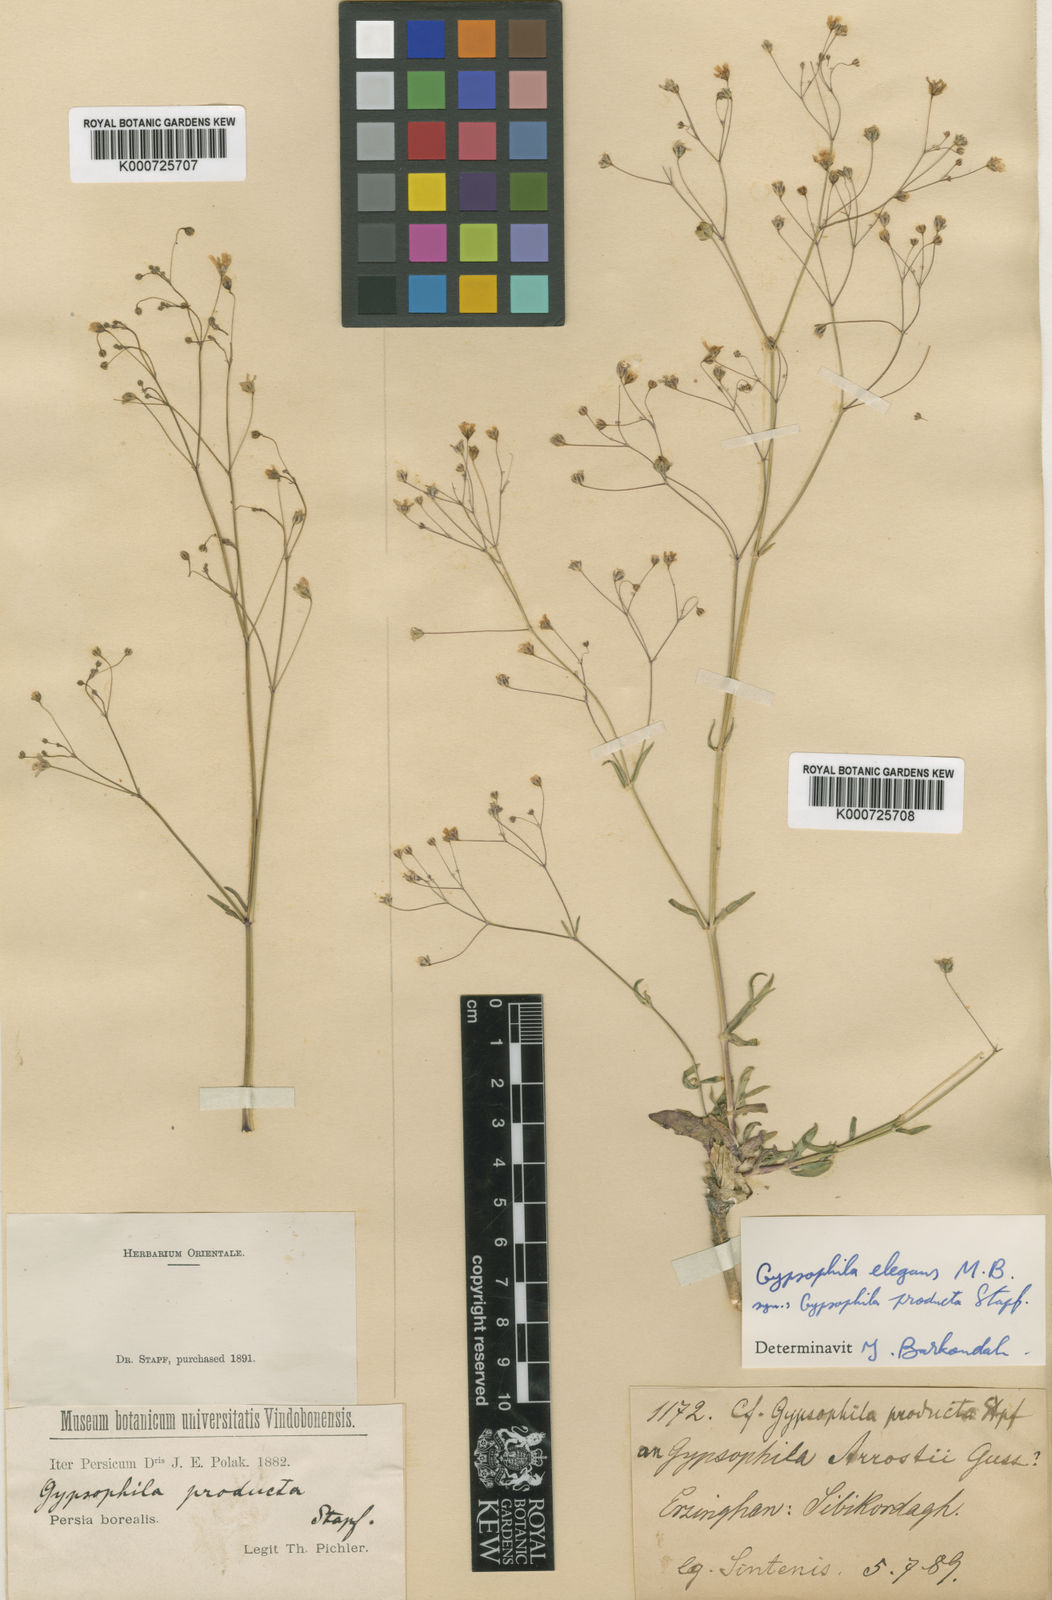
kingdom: Plantae
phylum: Tracheophyta
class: Magnoliopsida
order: Caryophyllales
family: Caryophyllaceae
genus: Gypsophila
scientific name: Gypsophila elegans
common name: Showy baby's-breath
